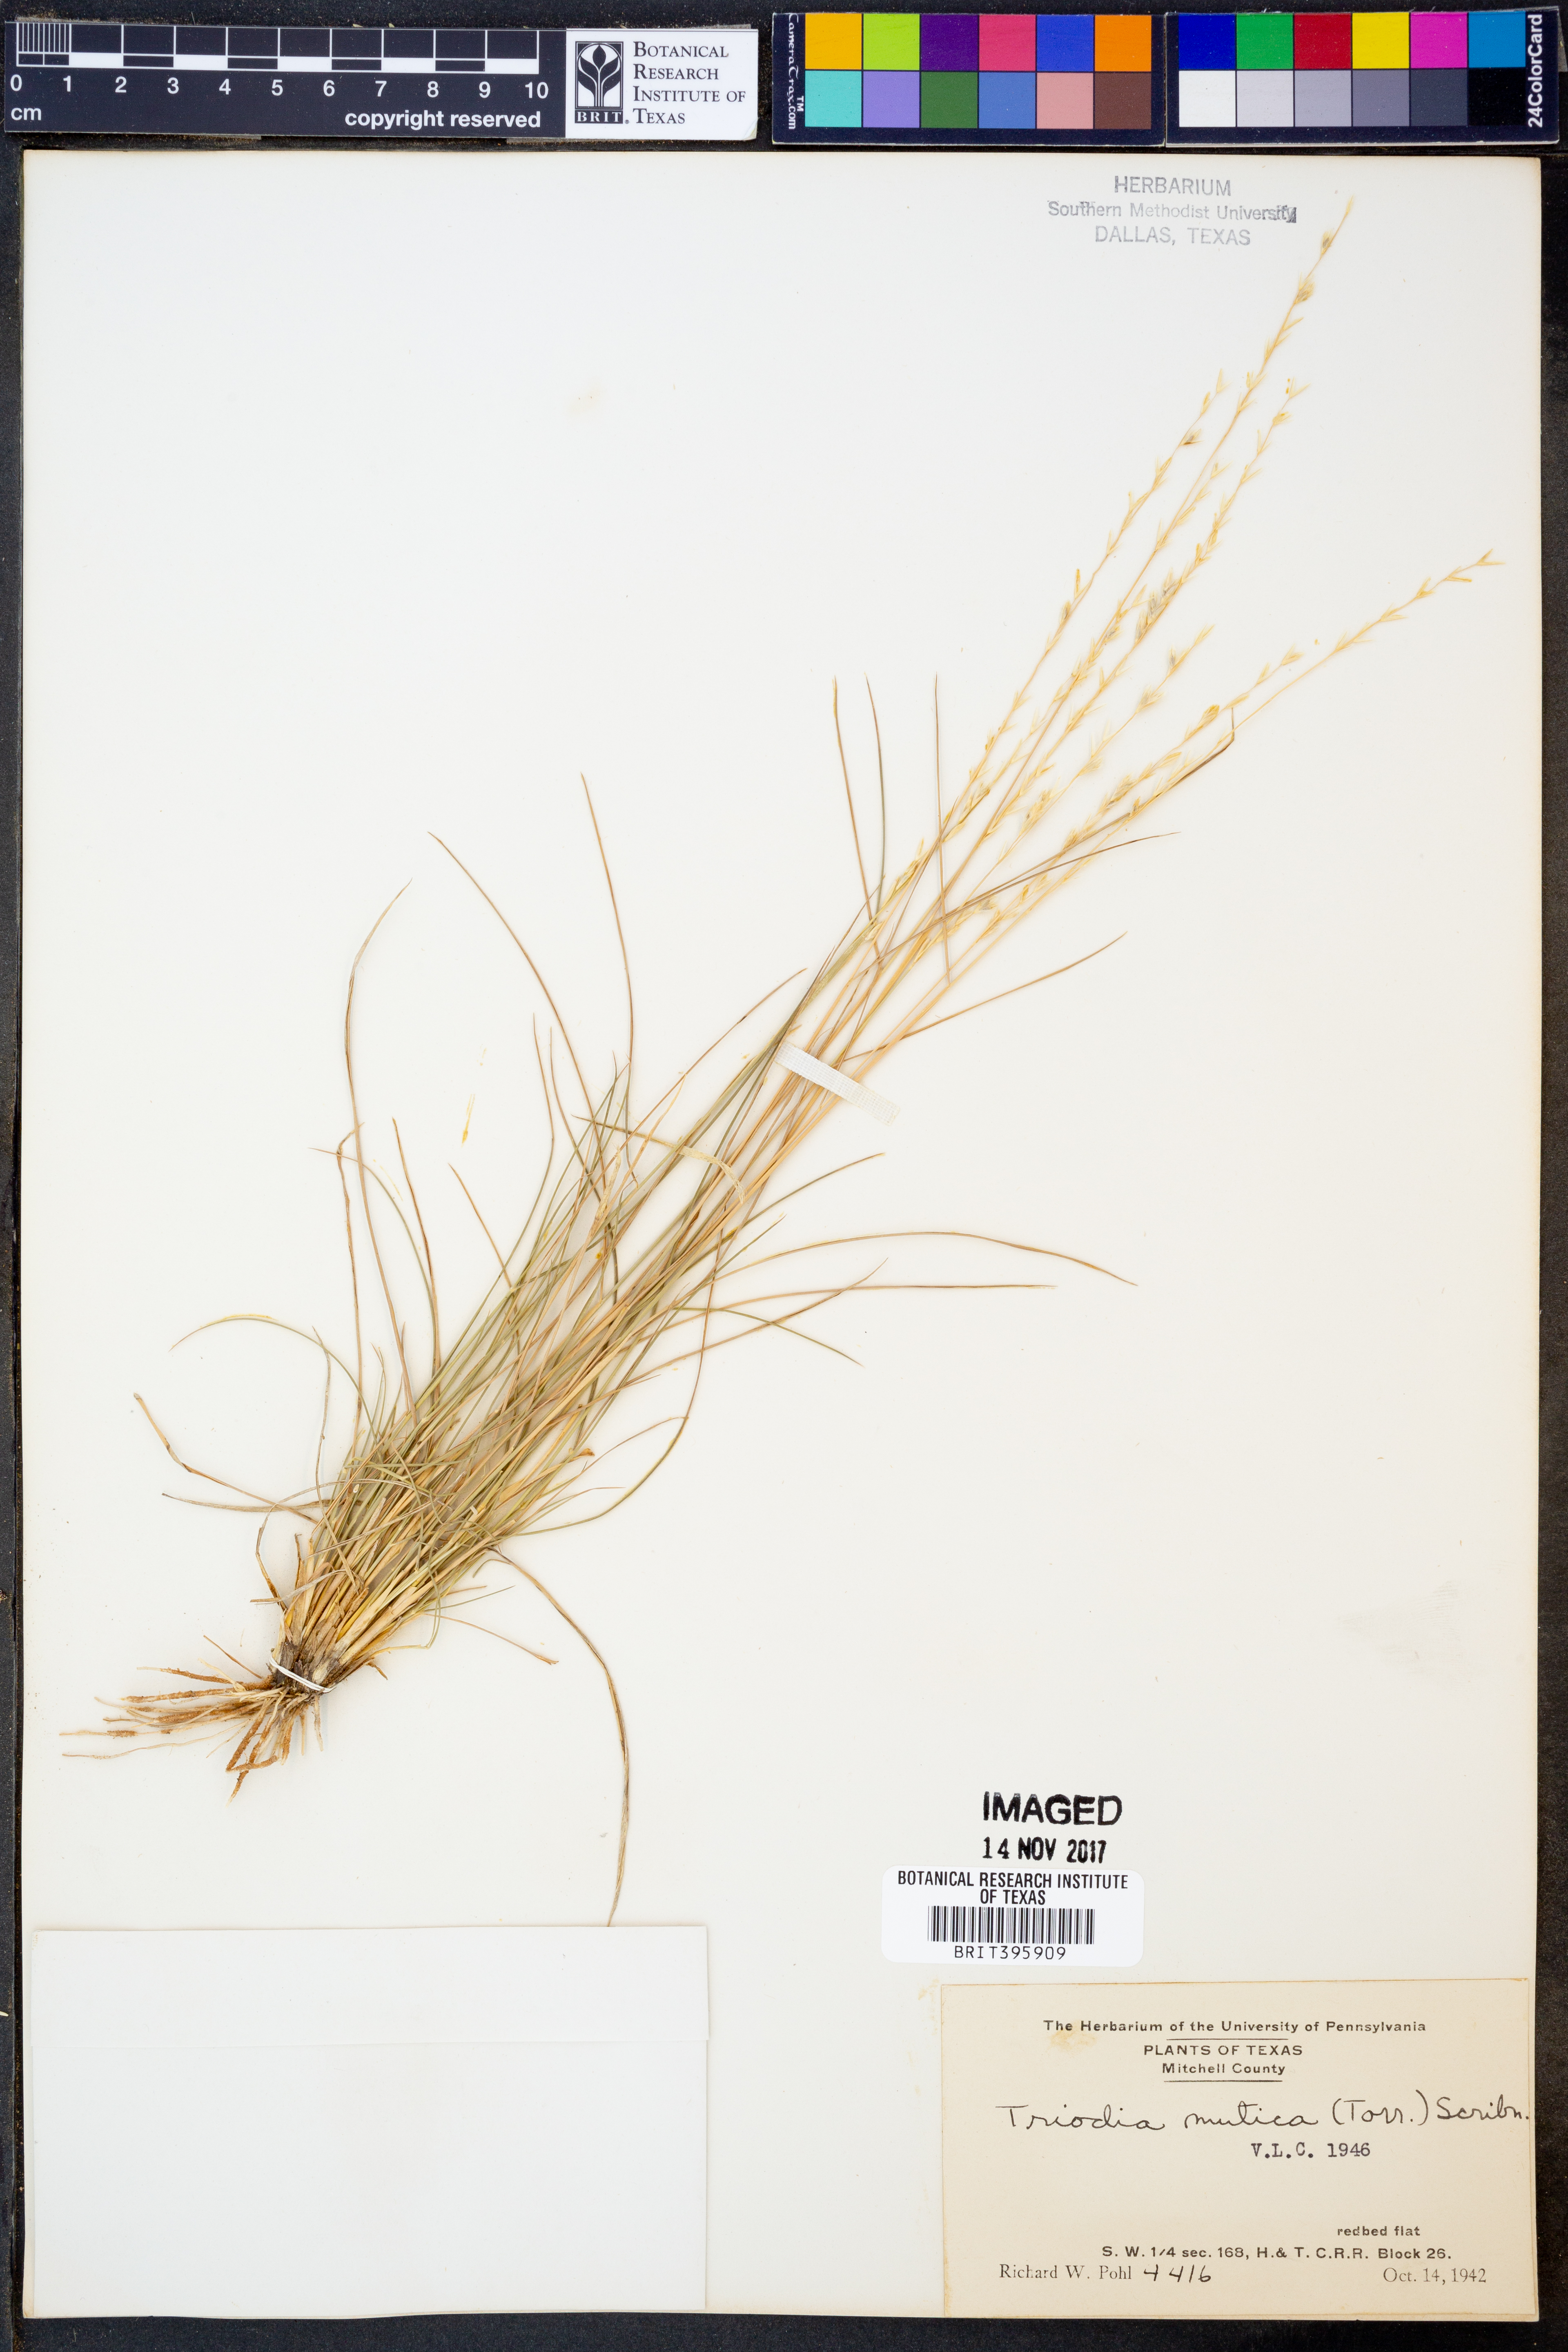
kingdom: Plantae
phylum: Tracheophyta
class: Liliopsida
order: Poales
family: Poaceae
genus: Tridentopsis
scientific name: Tridentopsis mutica
